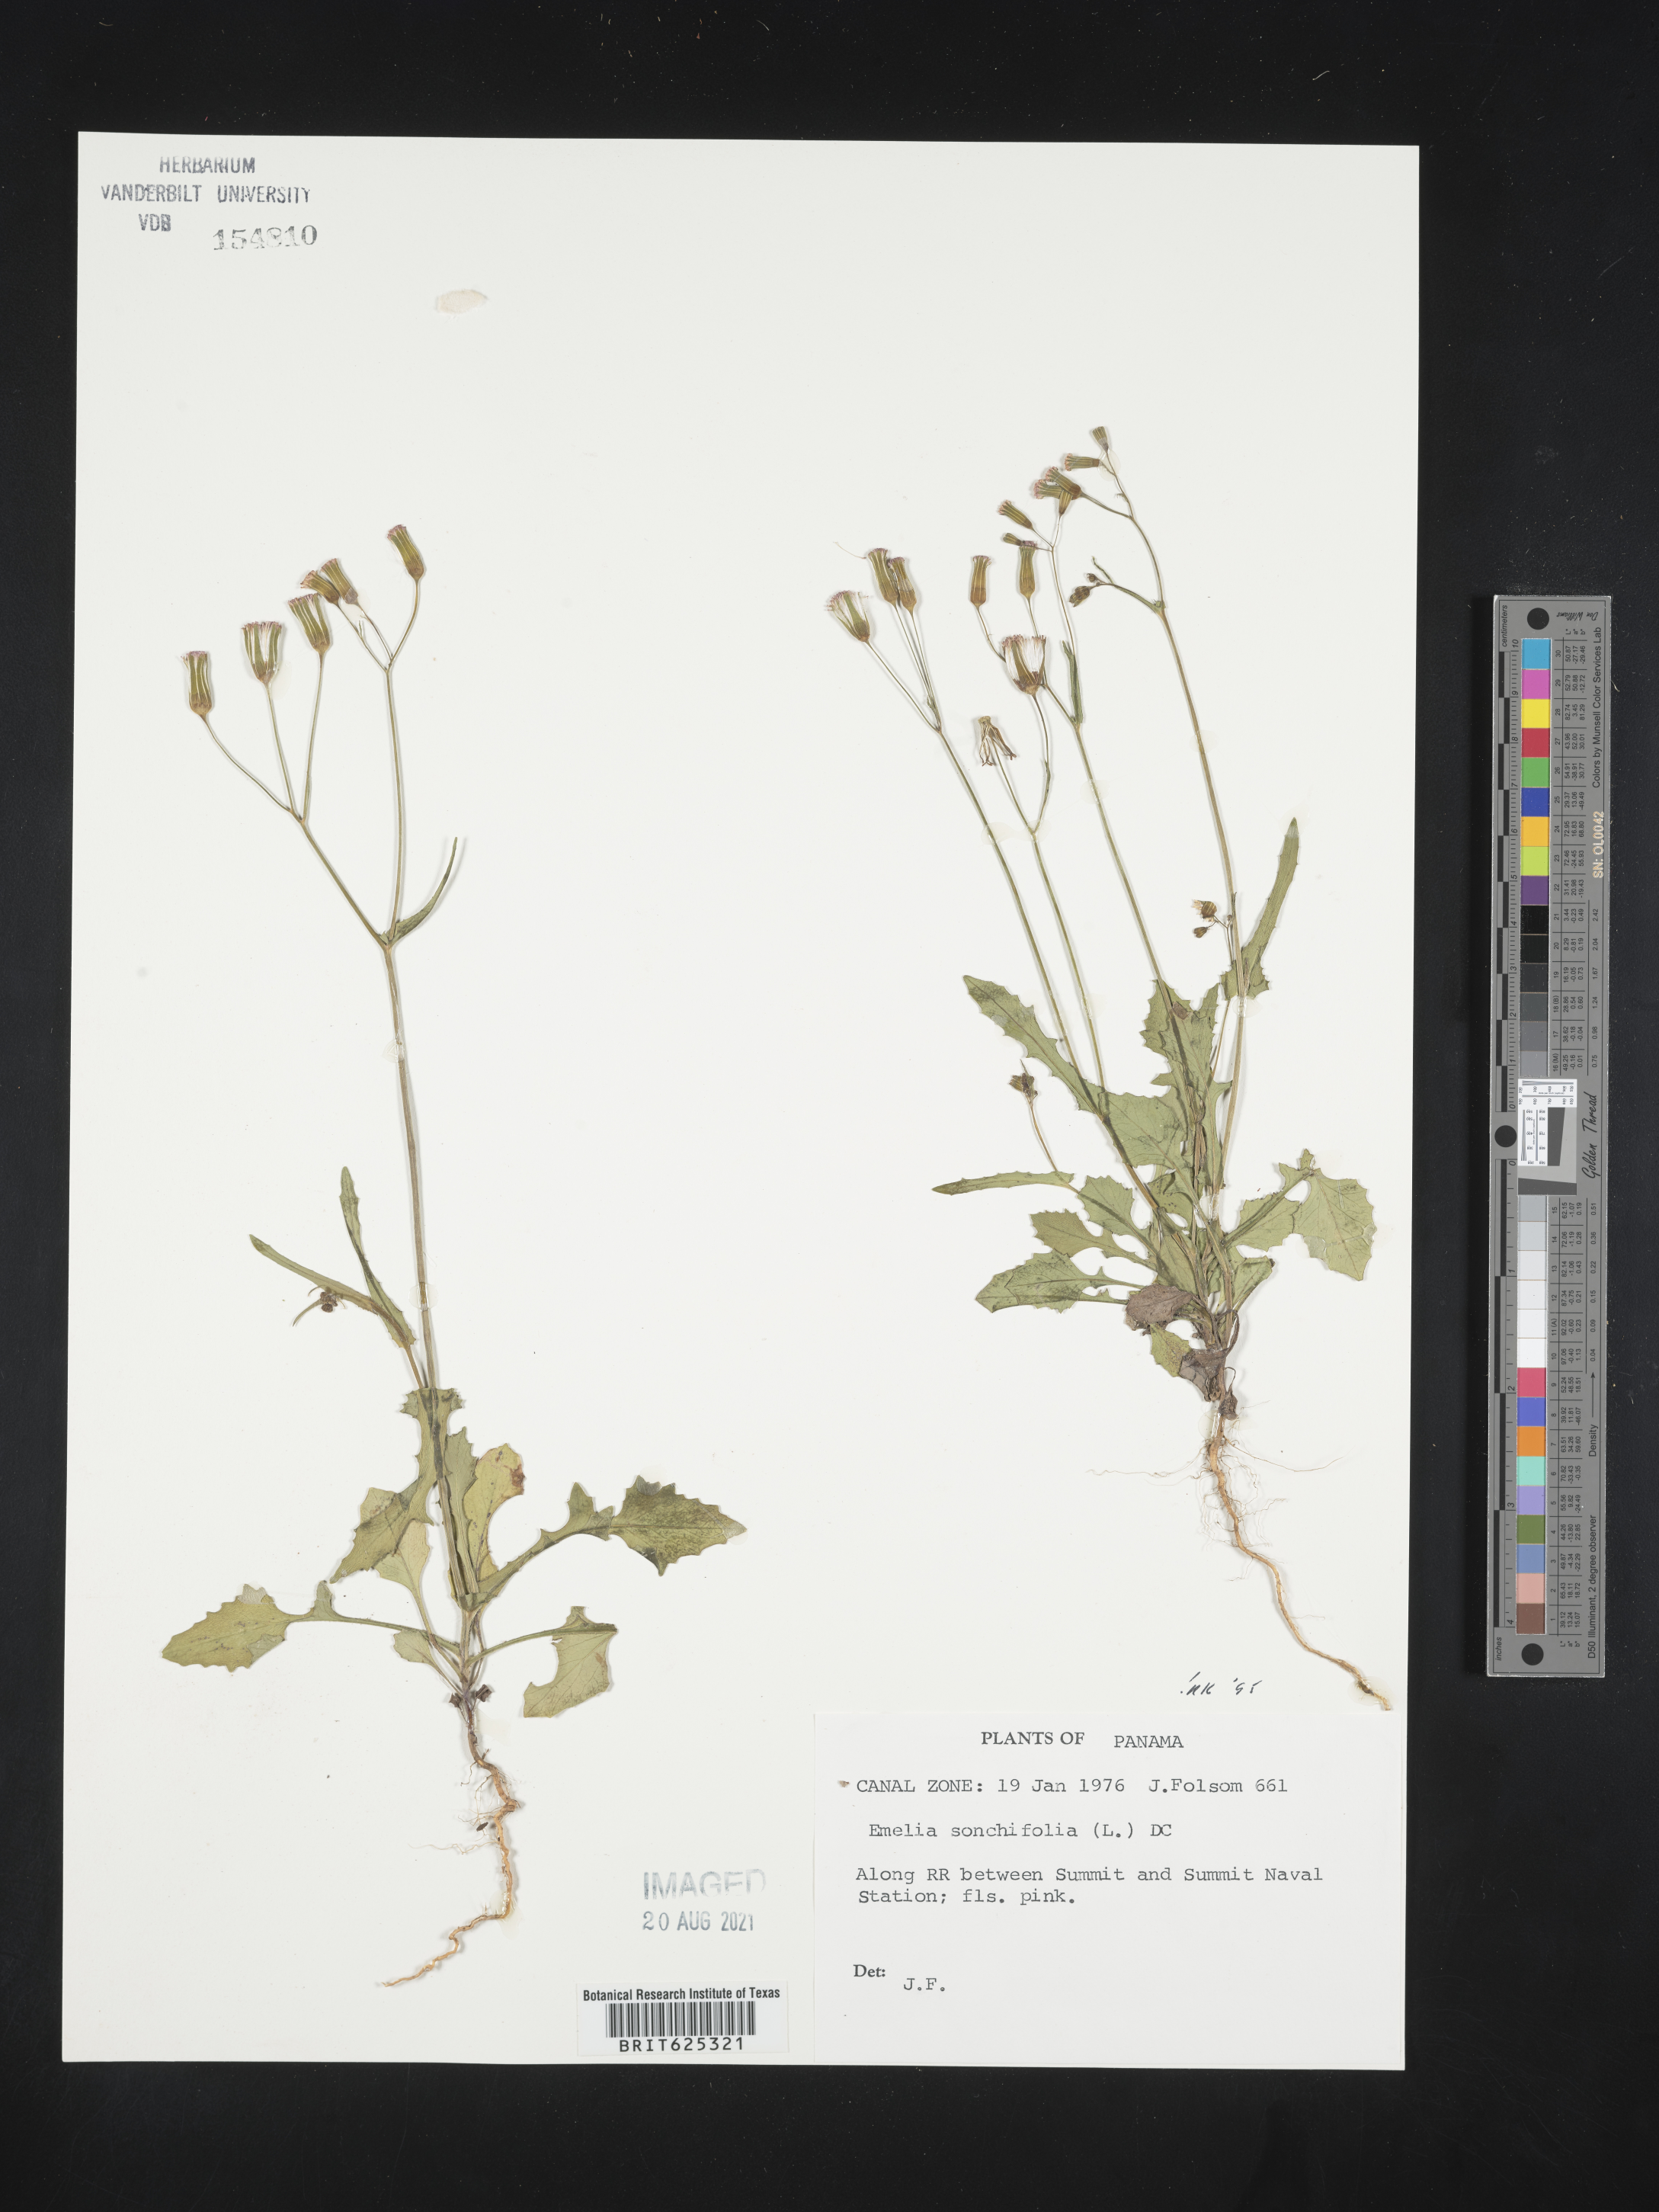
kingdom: Plantae
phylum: Tracheophyta
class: Magnoliopsida
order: Asterales
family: Asteraceae
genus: Emilia
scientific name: Emilia sonchifolia
